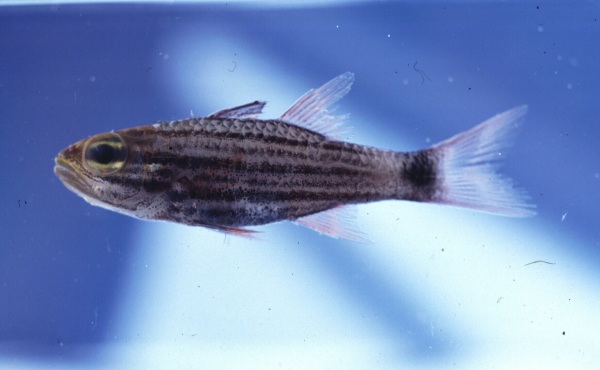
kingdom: Animalia
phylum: Chordata
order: Perciformes
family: Apogonidae
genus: Cheilodipterus
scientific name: Cheilodipterus macrodon
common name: Eight-lined cardinalfish
